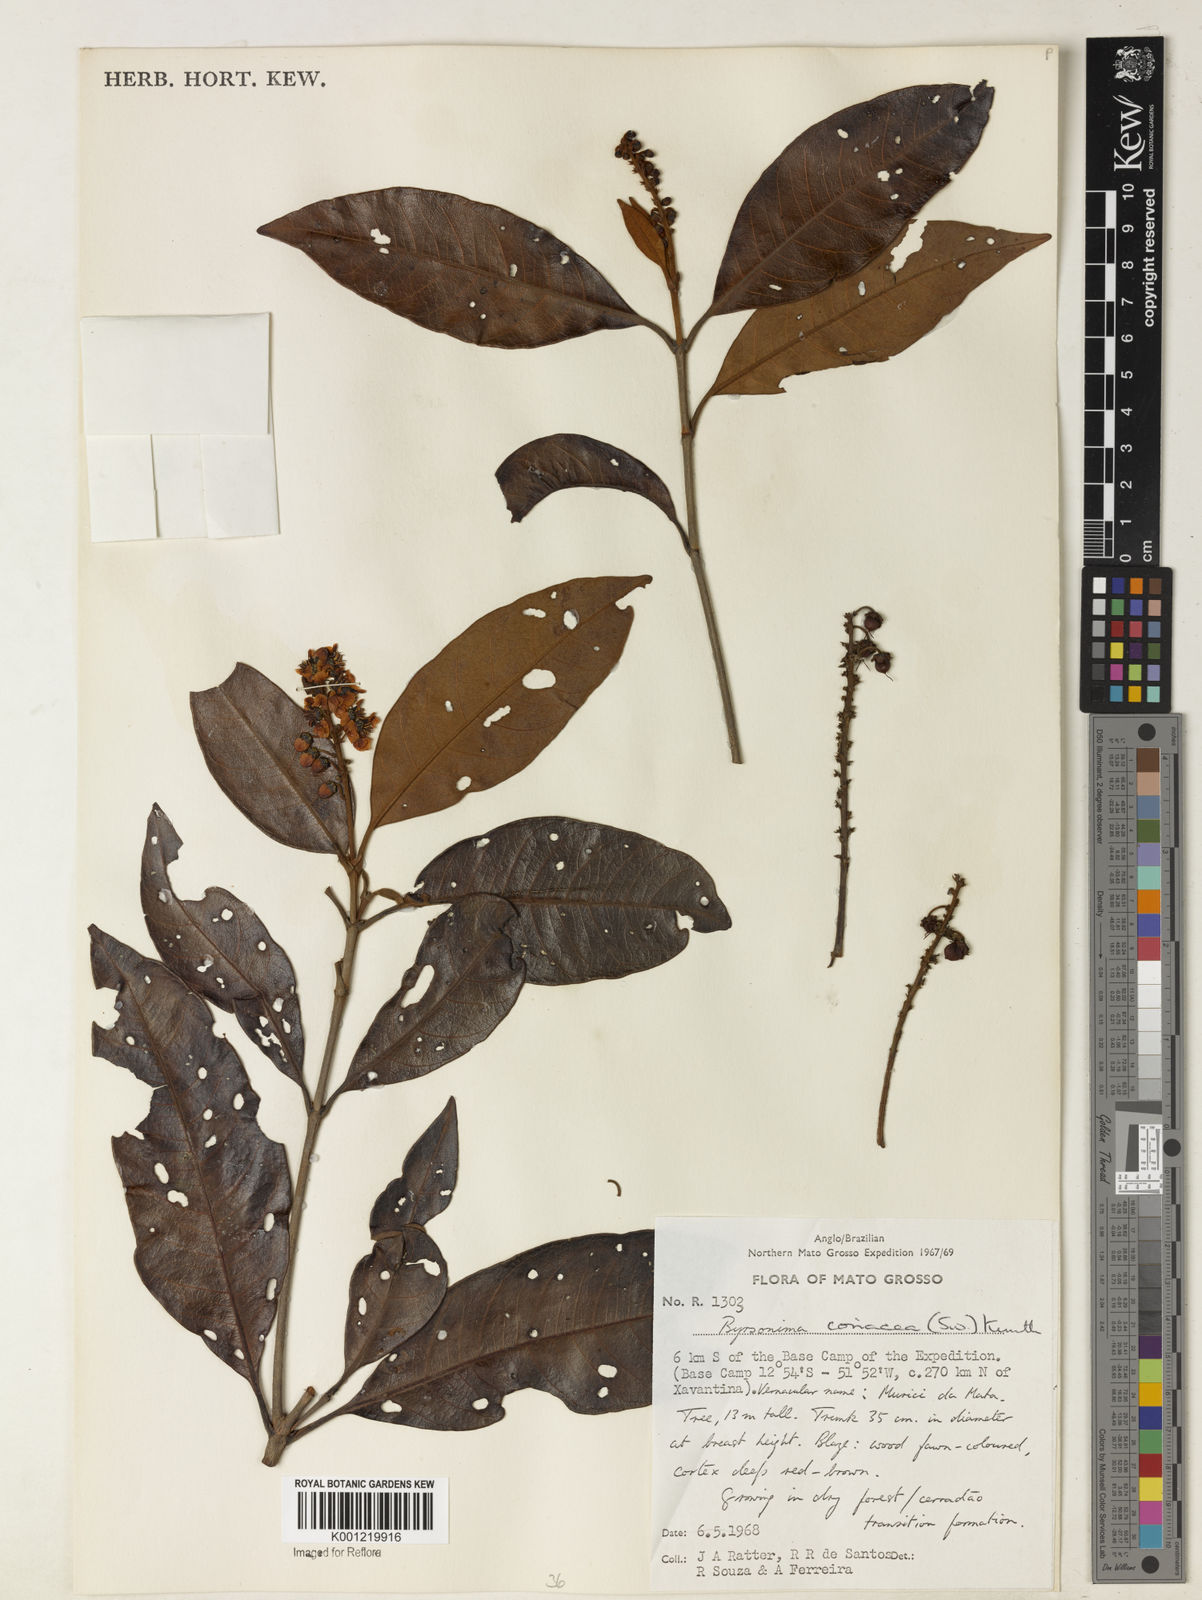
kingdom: Plantae
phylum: Tracheophyta
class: Magnoliopsida
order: Malpighiales
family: Malpighiaceae
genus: Byrsonima
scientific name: Byrsonima
